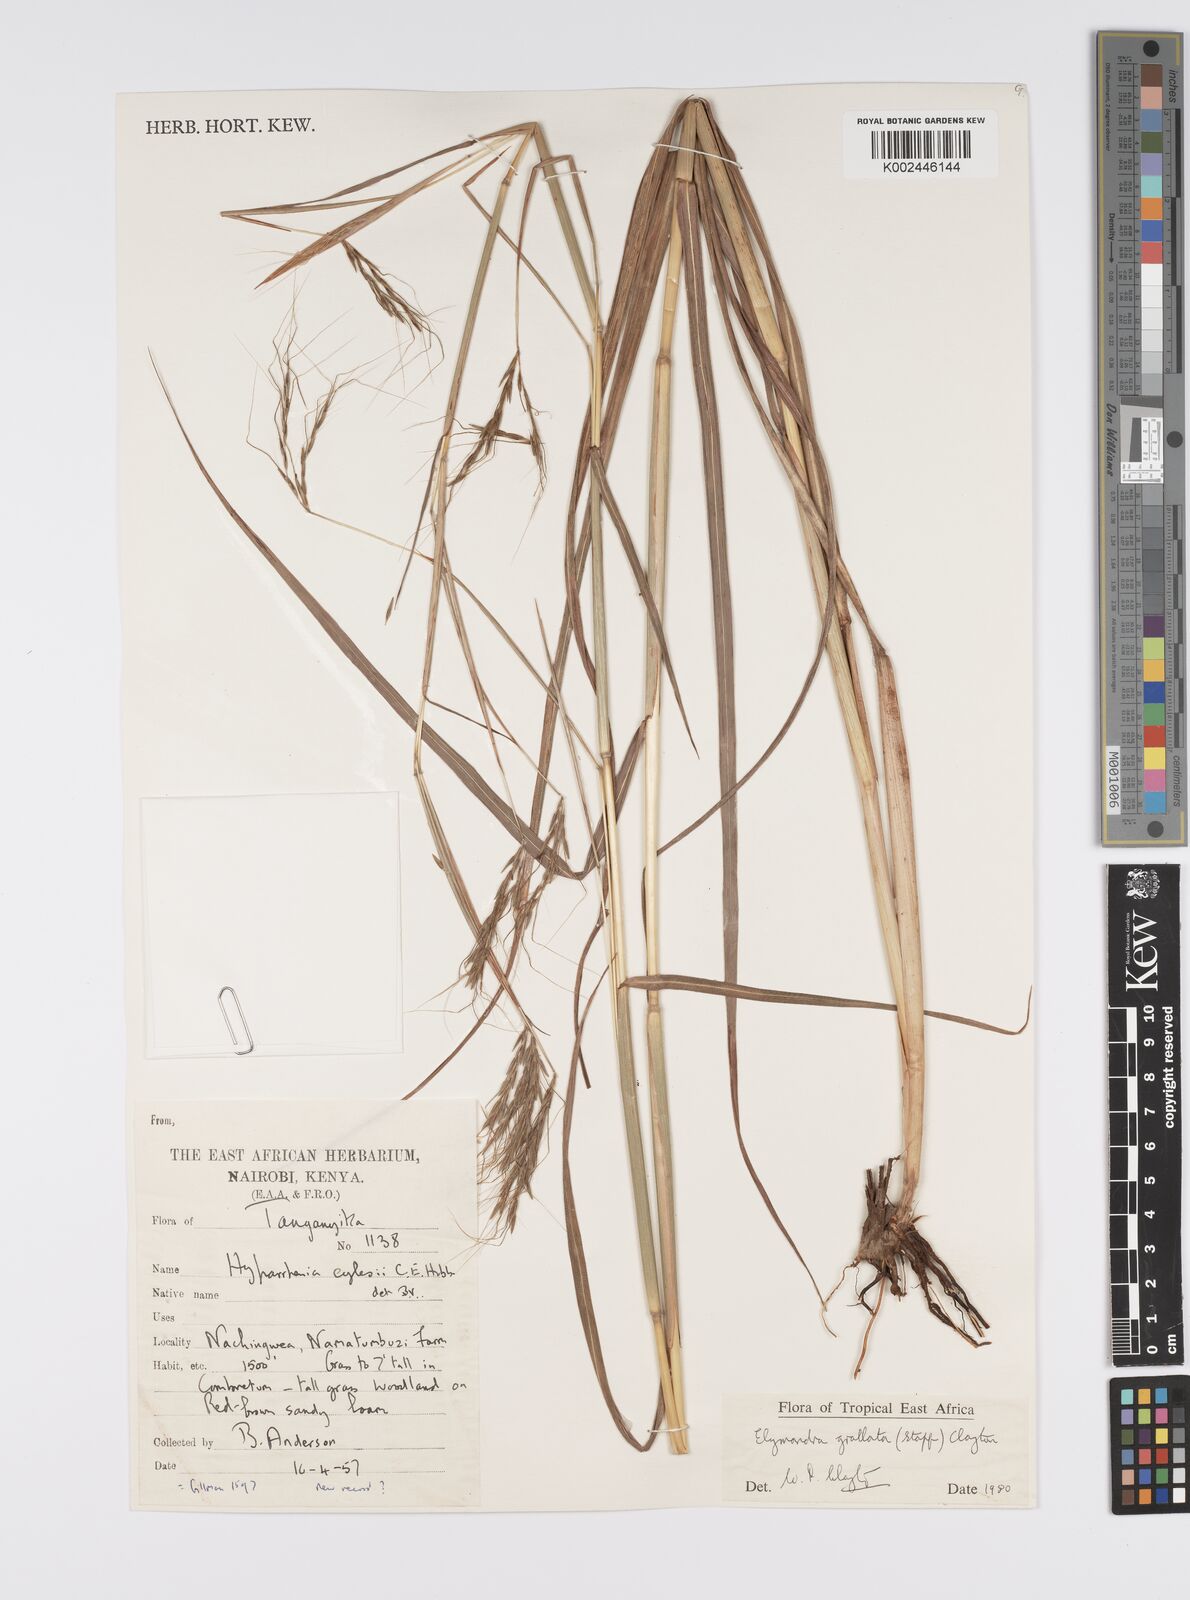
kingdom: Plantae
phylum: Tracheophyta
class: Liliopsida
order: Poales
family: Poaceae
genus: Elymandra
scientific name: Elymandra grallata
